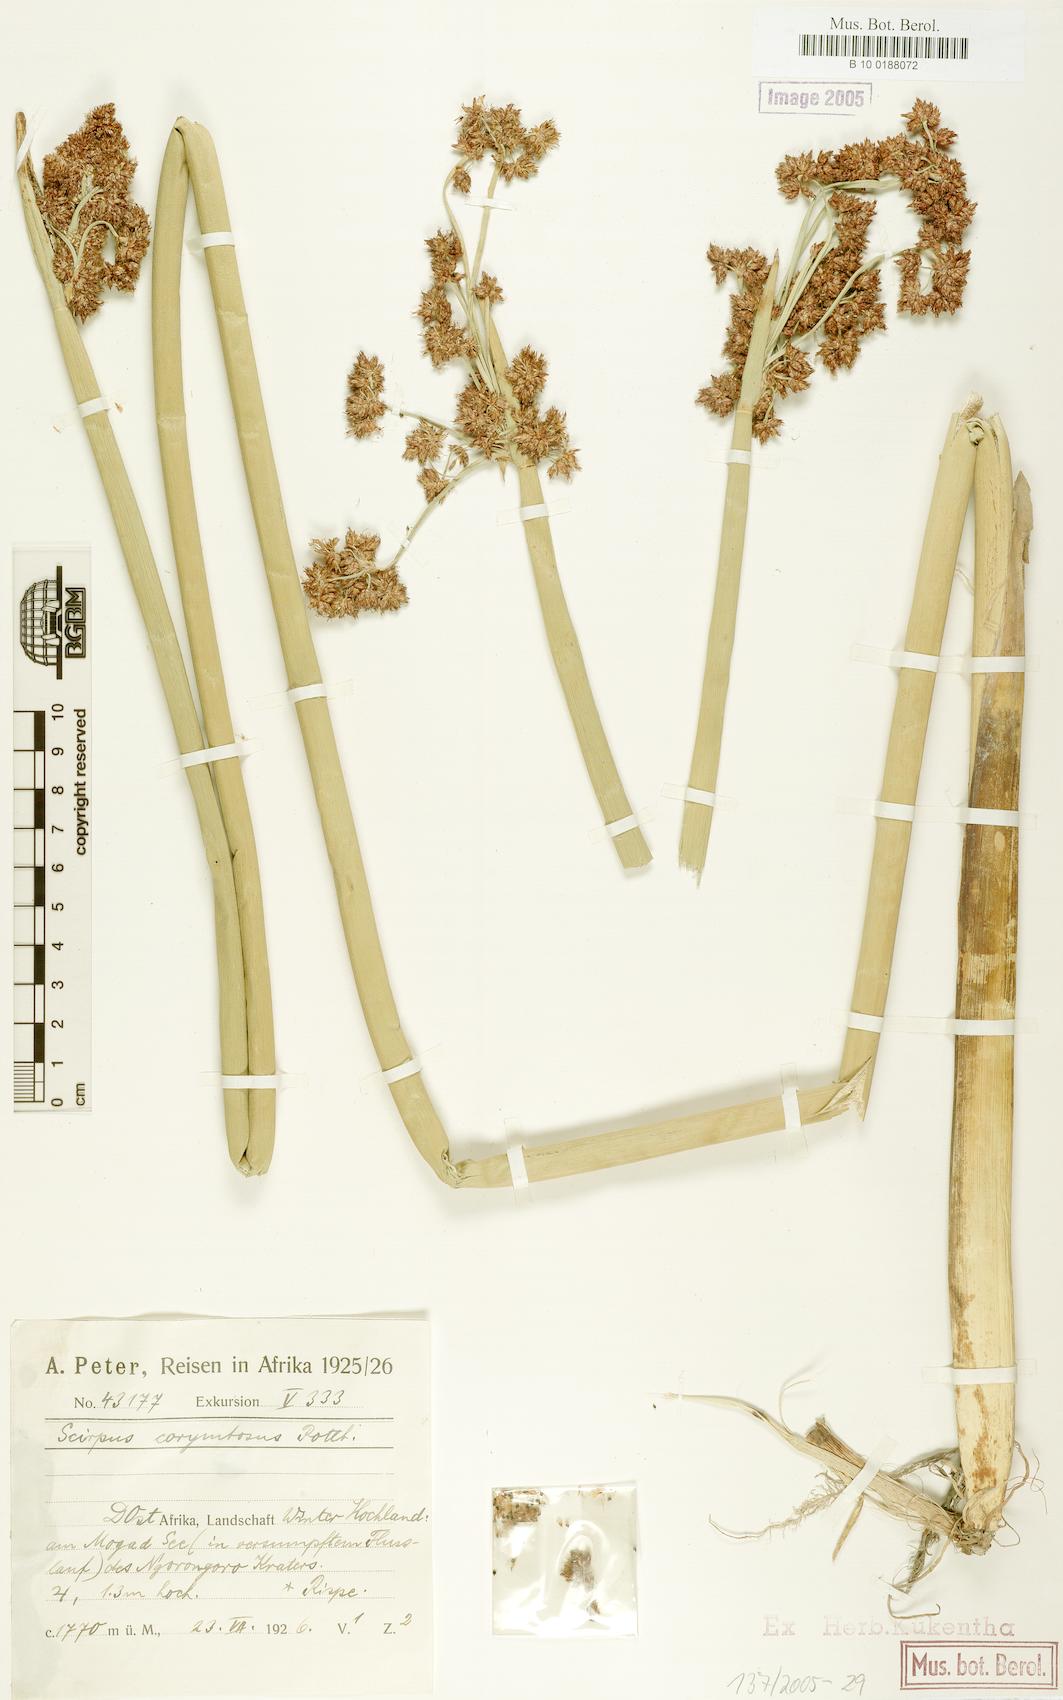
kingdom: Plantae
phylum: Tracheophyta
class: Liliopsida
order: Poales
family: Cyperaceae
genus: Schoenoplectiella
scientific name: Schoenoplectiella brachyceras
